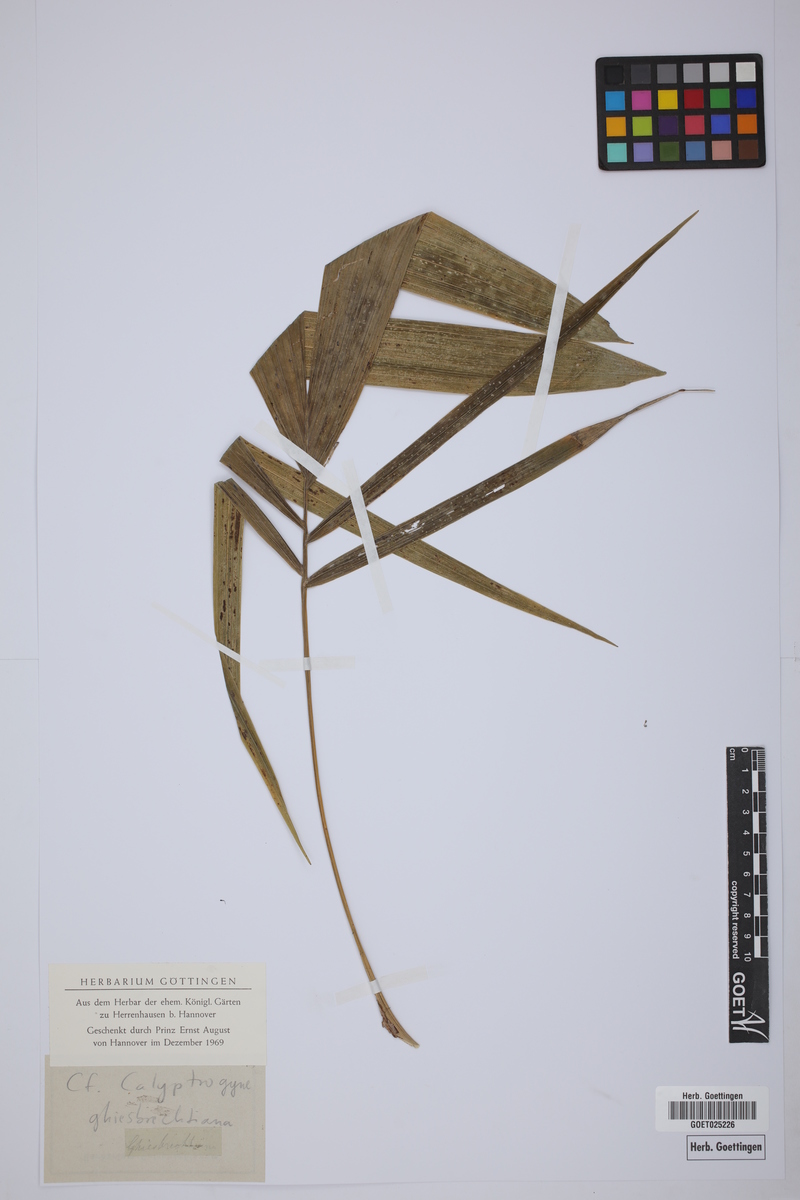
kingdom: Plantae
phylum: Tracheophyta
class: Liliopsida
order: Arecales
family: Arecaceae
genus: Calyptrogyne
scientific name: Calyptrogyne ghiesbreghtiana
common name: Coligallo
